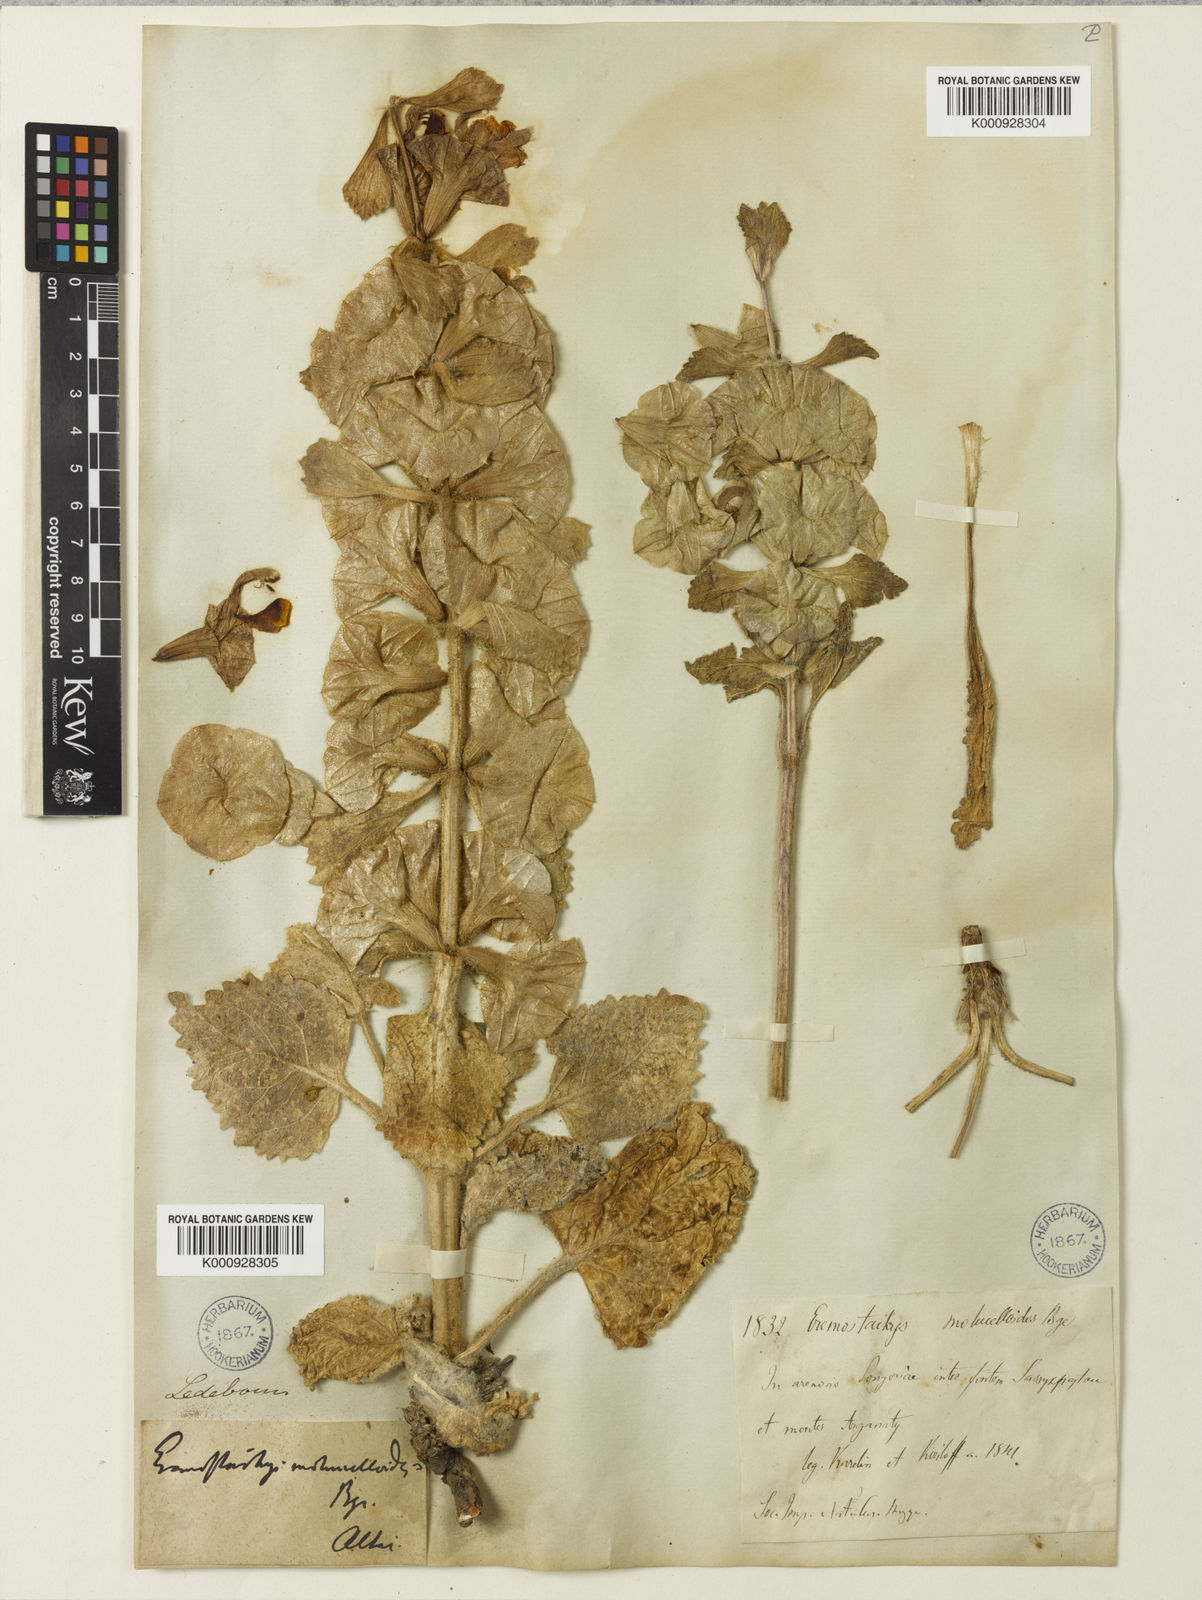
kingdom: Plantae
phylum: Tracheophyta
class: Magnoliopsida
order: Lamiales
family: Lamiaceae
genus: Phlomoides
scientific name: Phlomoides molucelloides
